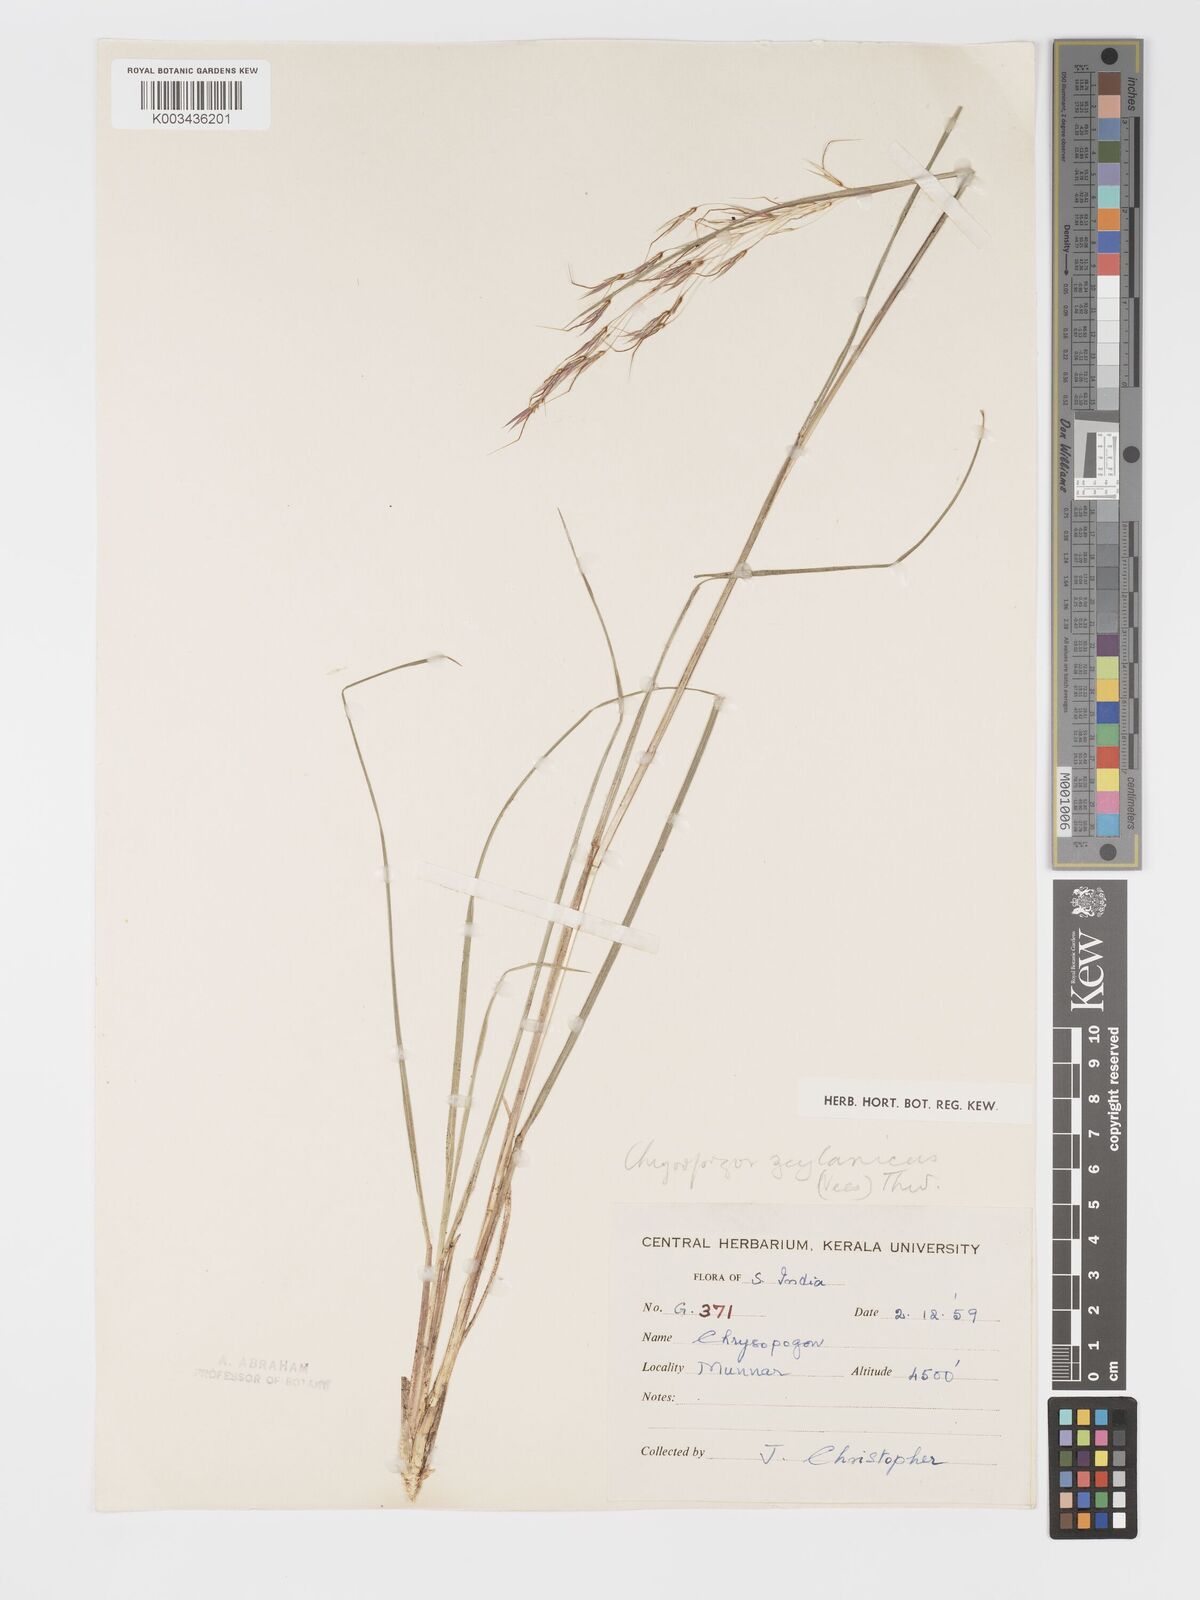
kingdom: Plantae
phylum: Tracheophyta
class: Liliopsida
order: Poales
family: Poaceae
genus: Chrysopogon
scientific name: Chrysopogon nodulibarbis
